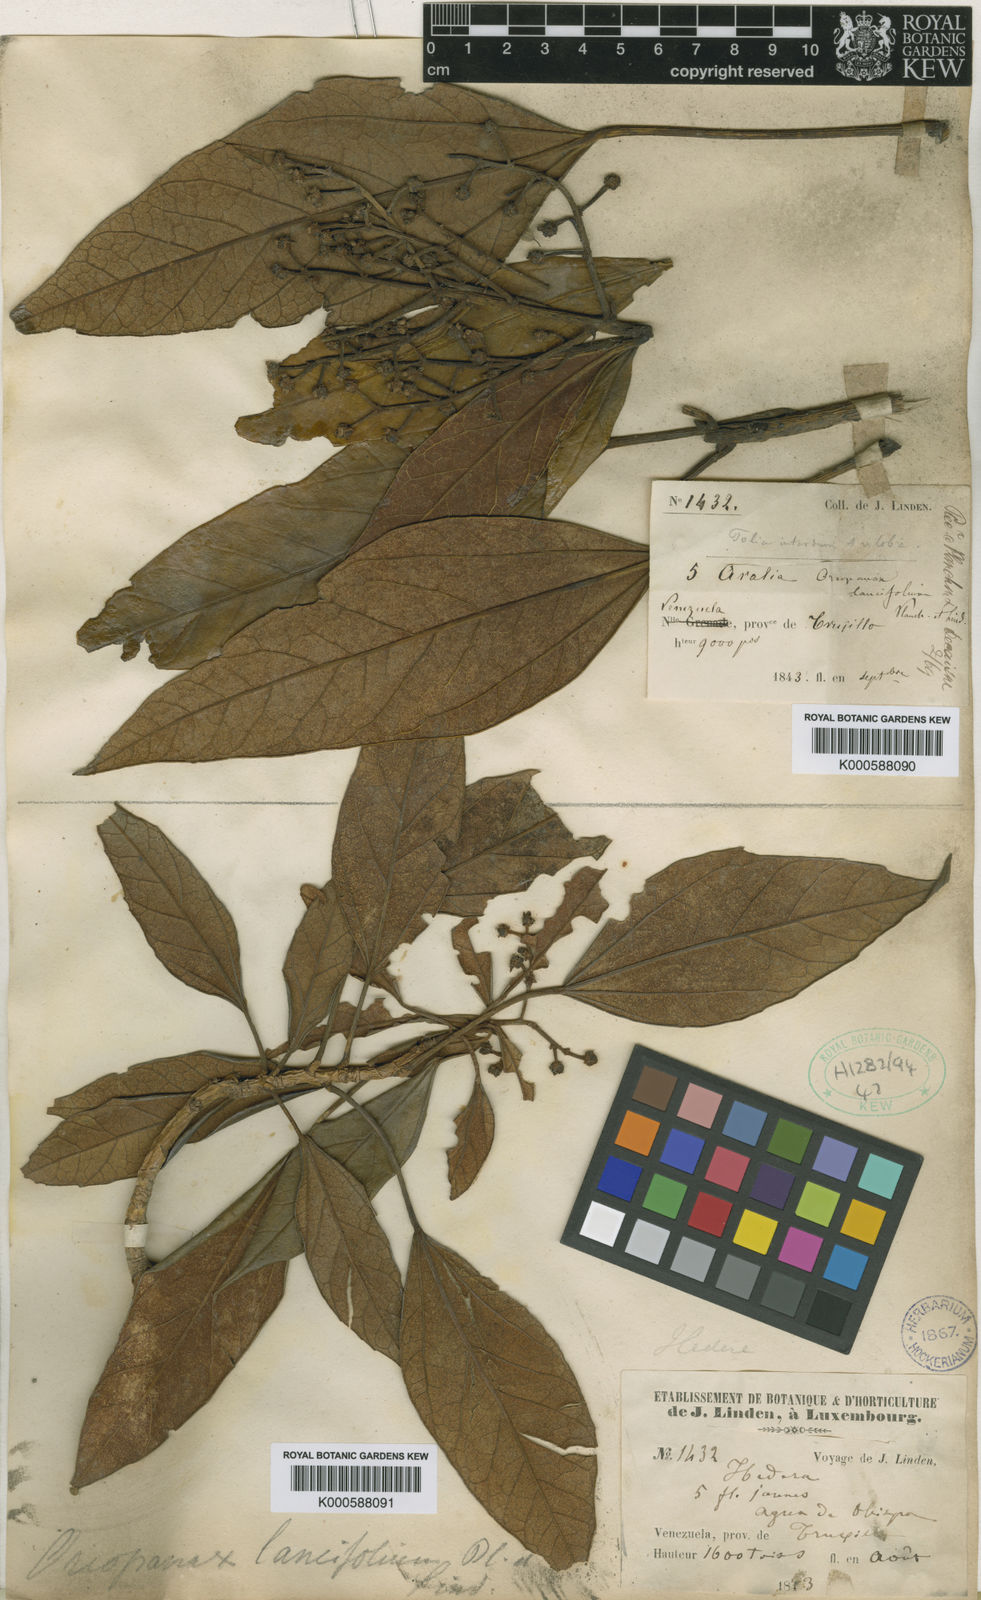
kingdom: Plantae
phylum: Tracheophyta
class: Magnoliopsida
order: Apiales
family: Araliaceae
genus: Oreopanax
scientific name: Oreopanax
